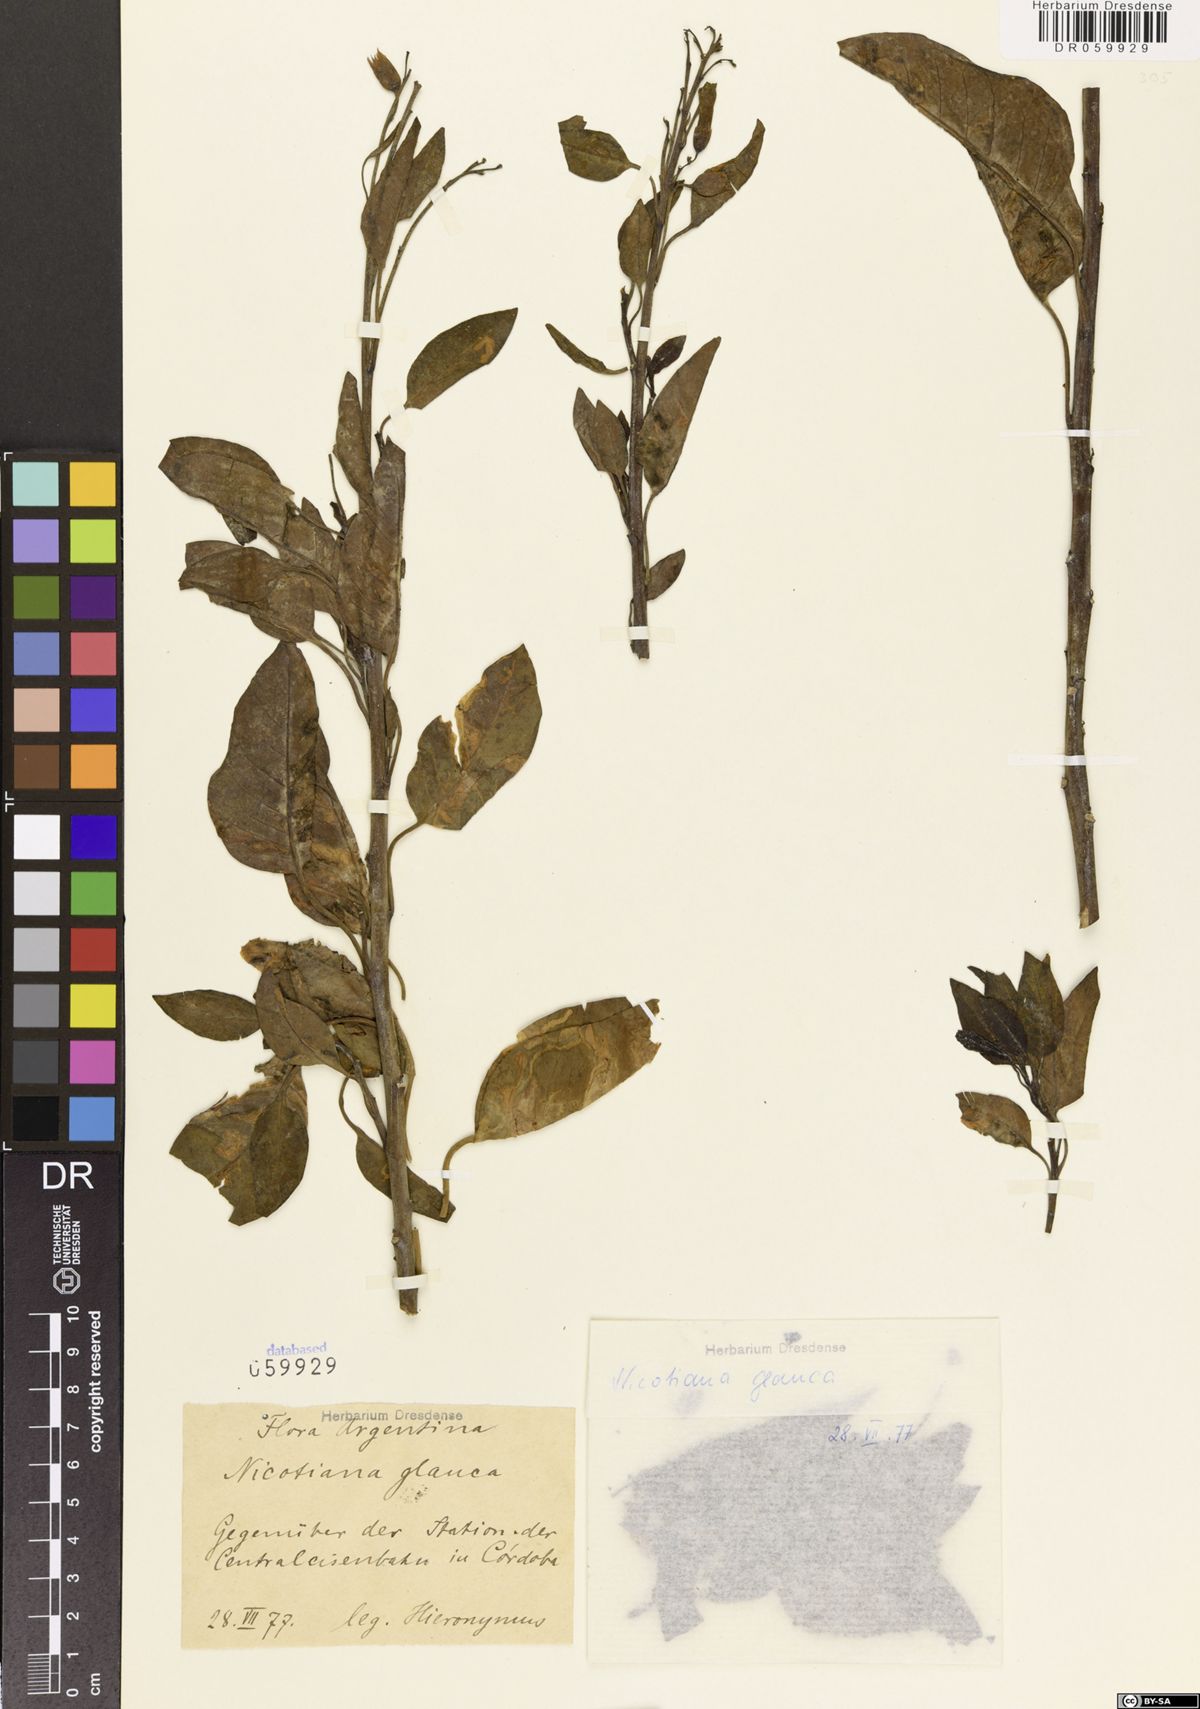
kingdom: Plantae
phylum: Tracheophyta
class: Magnoliopsida
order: Solanales
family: Solanaceae
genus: Nicotiana
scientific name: Nicotiana glauca
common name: Tree tobacco
